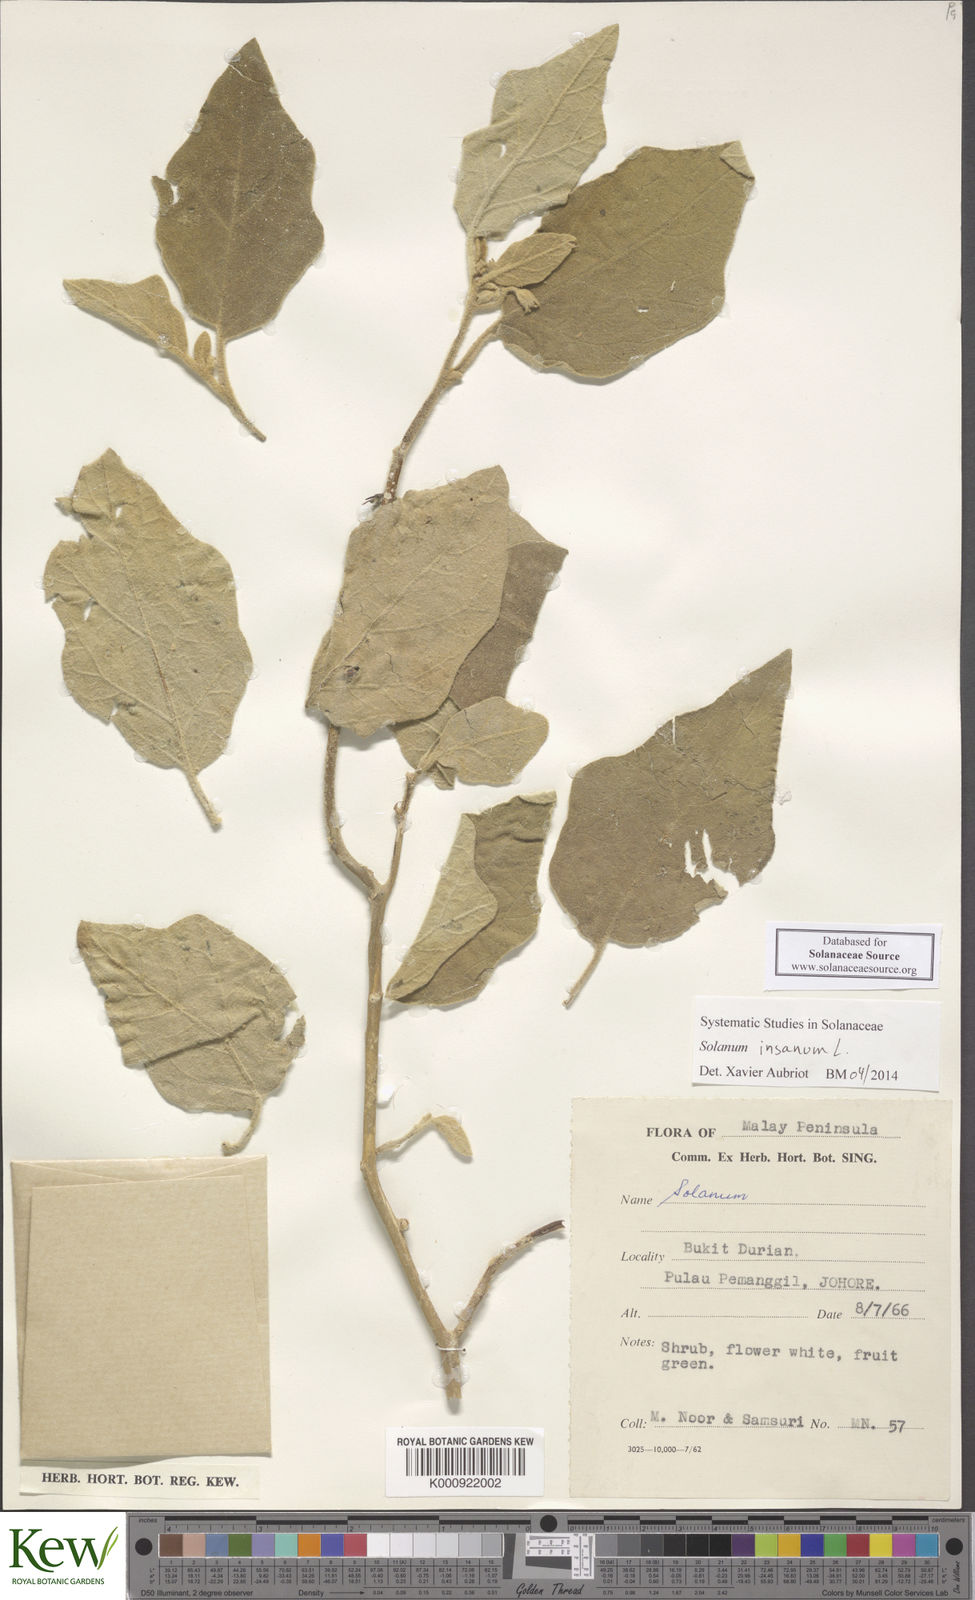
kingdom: Plantae
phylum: Tracheophyta
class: Magnoliopsida
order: Solanales
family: Solanaceae
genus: Solanum
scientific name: Solanum insanum
